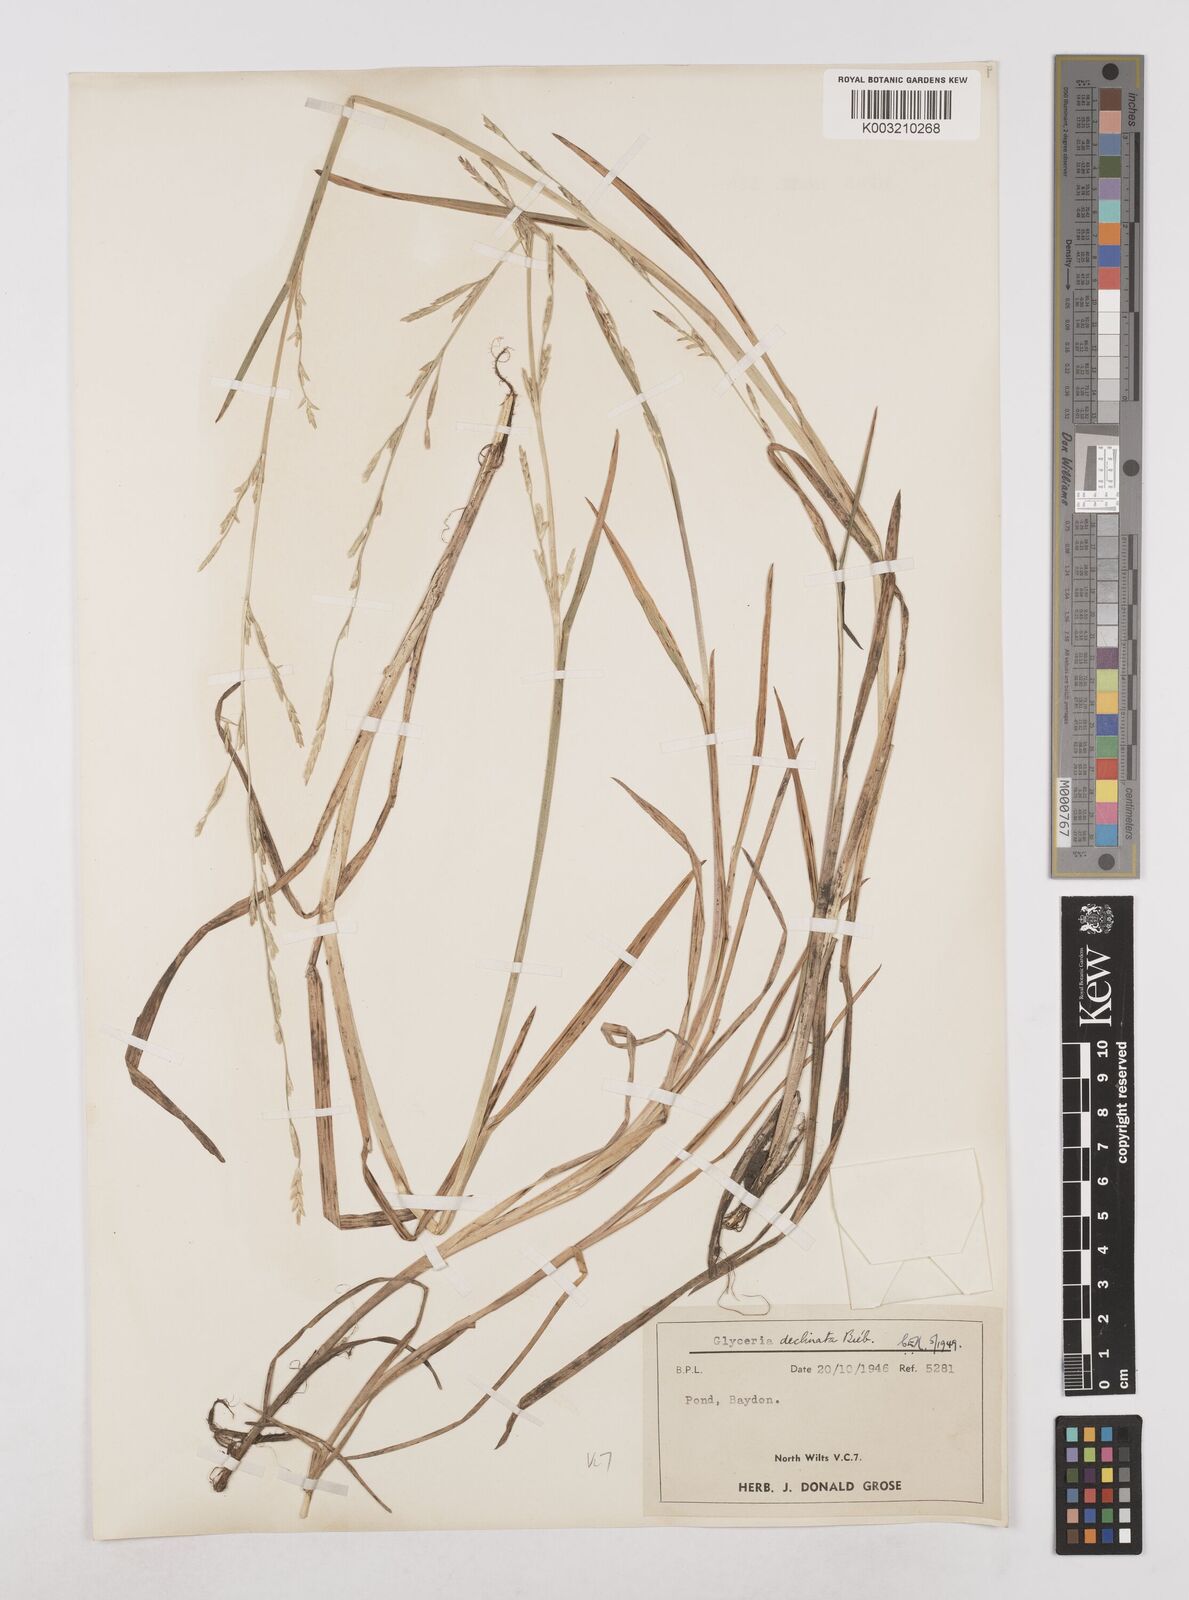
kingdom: Plantae
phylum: Tracheophyta
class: Liliopsida
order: Poales
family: Poaceae
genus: Glyceria
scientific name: Glyceria declinata
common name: Small sweet-grass
